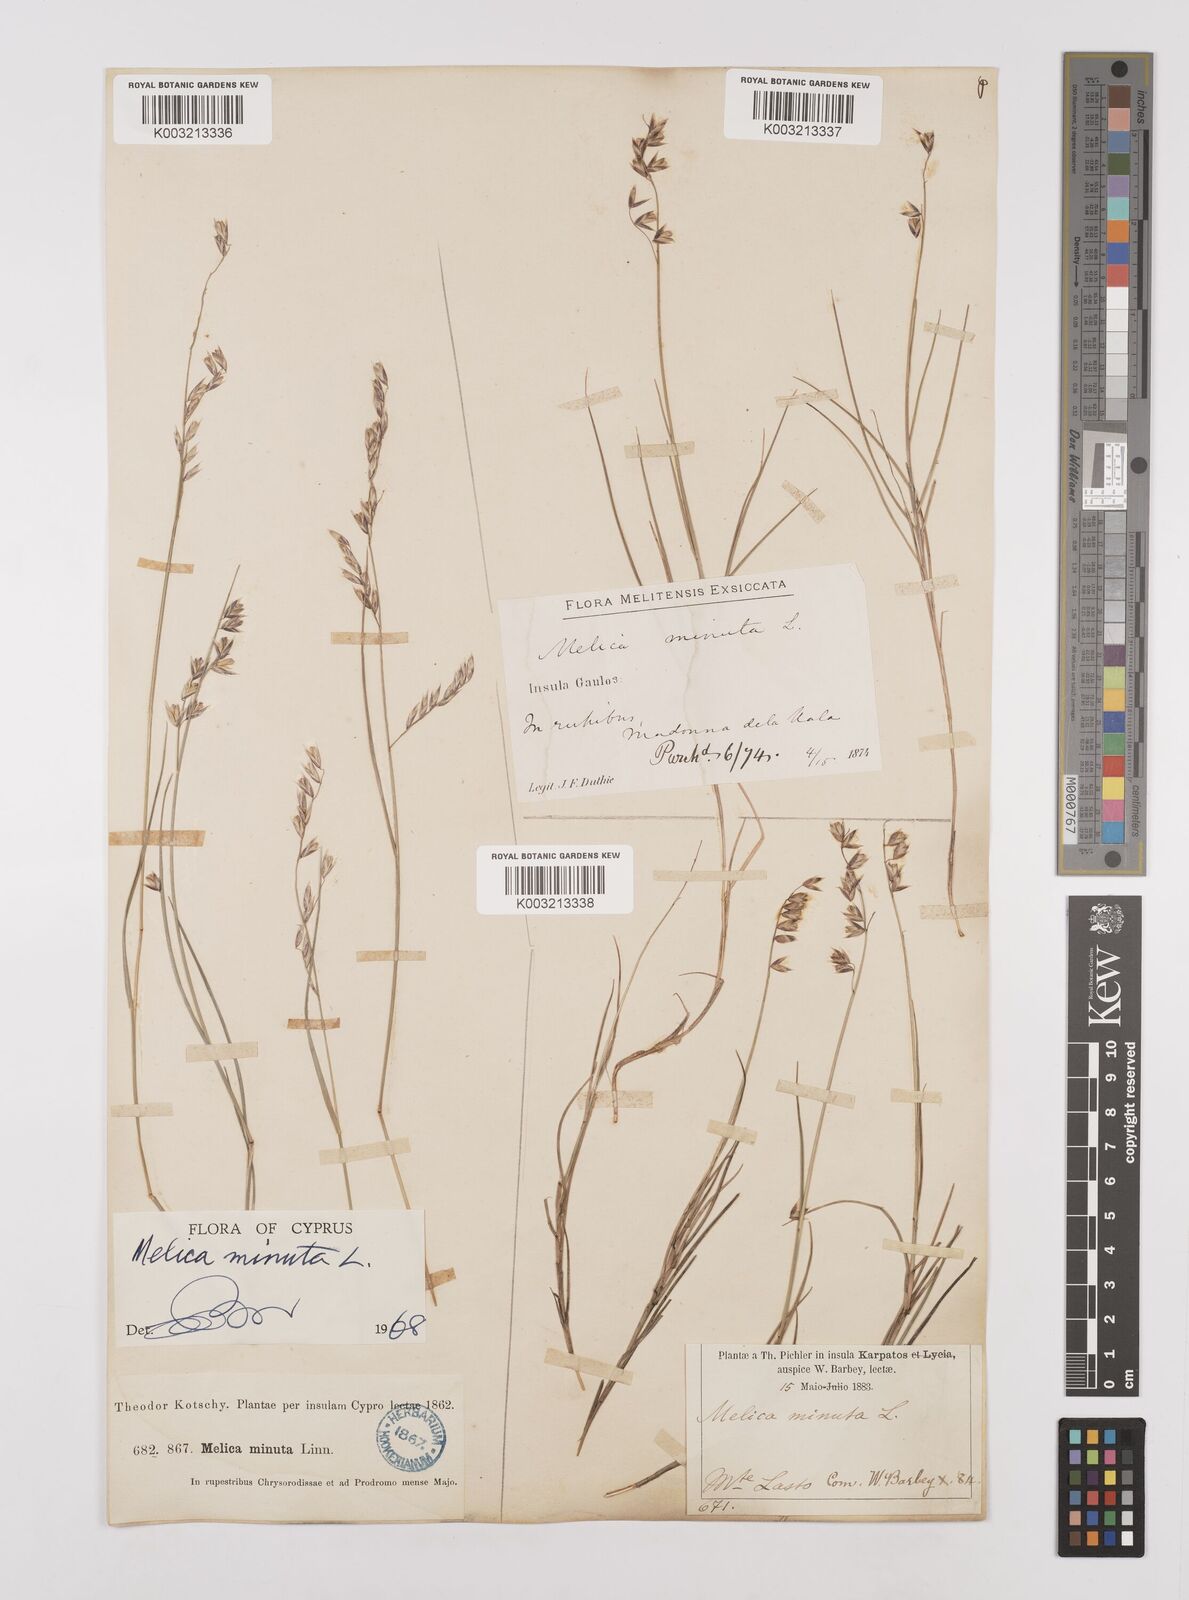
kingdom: Plantae
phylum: Tracheophyta
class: Liliopsida
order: Poales
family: Poaceae
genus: Melica
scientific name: Melica minuta
